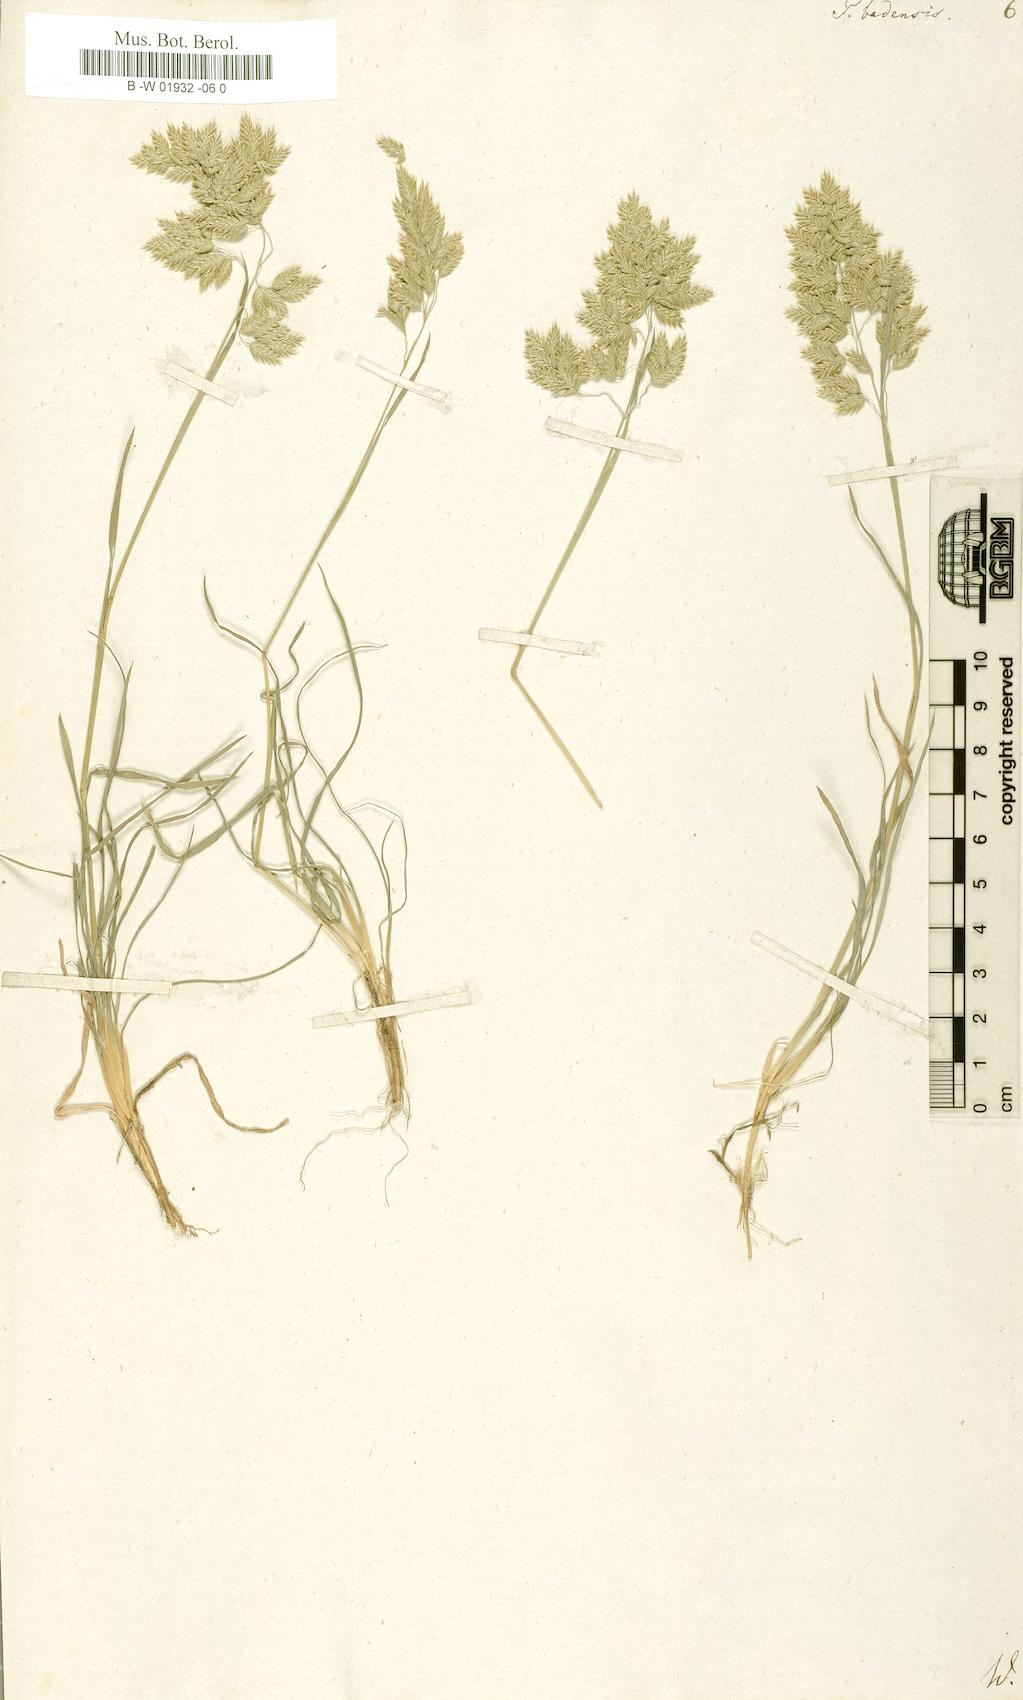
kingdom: Plantae
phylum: Tracheophyta
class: Liliopsida
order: Poales
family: Poaceae
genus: Poa
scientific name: Poa badensis
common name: Baden's bluegrass
